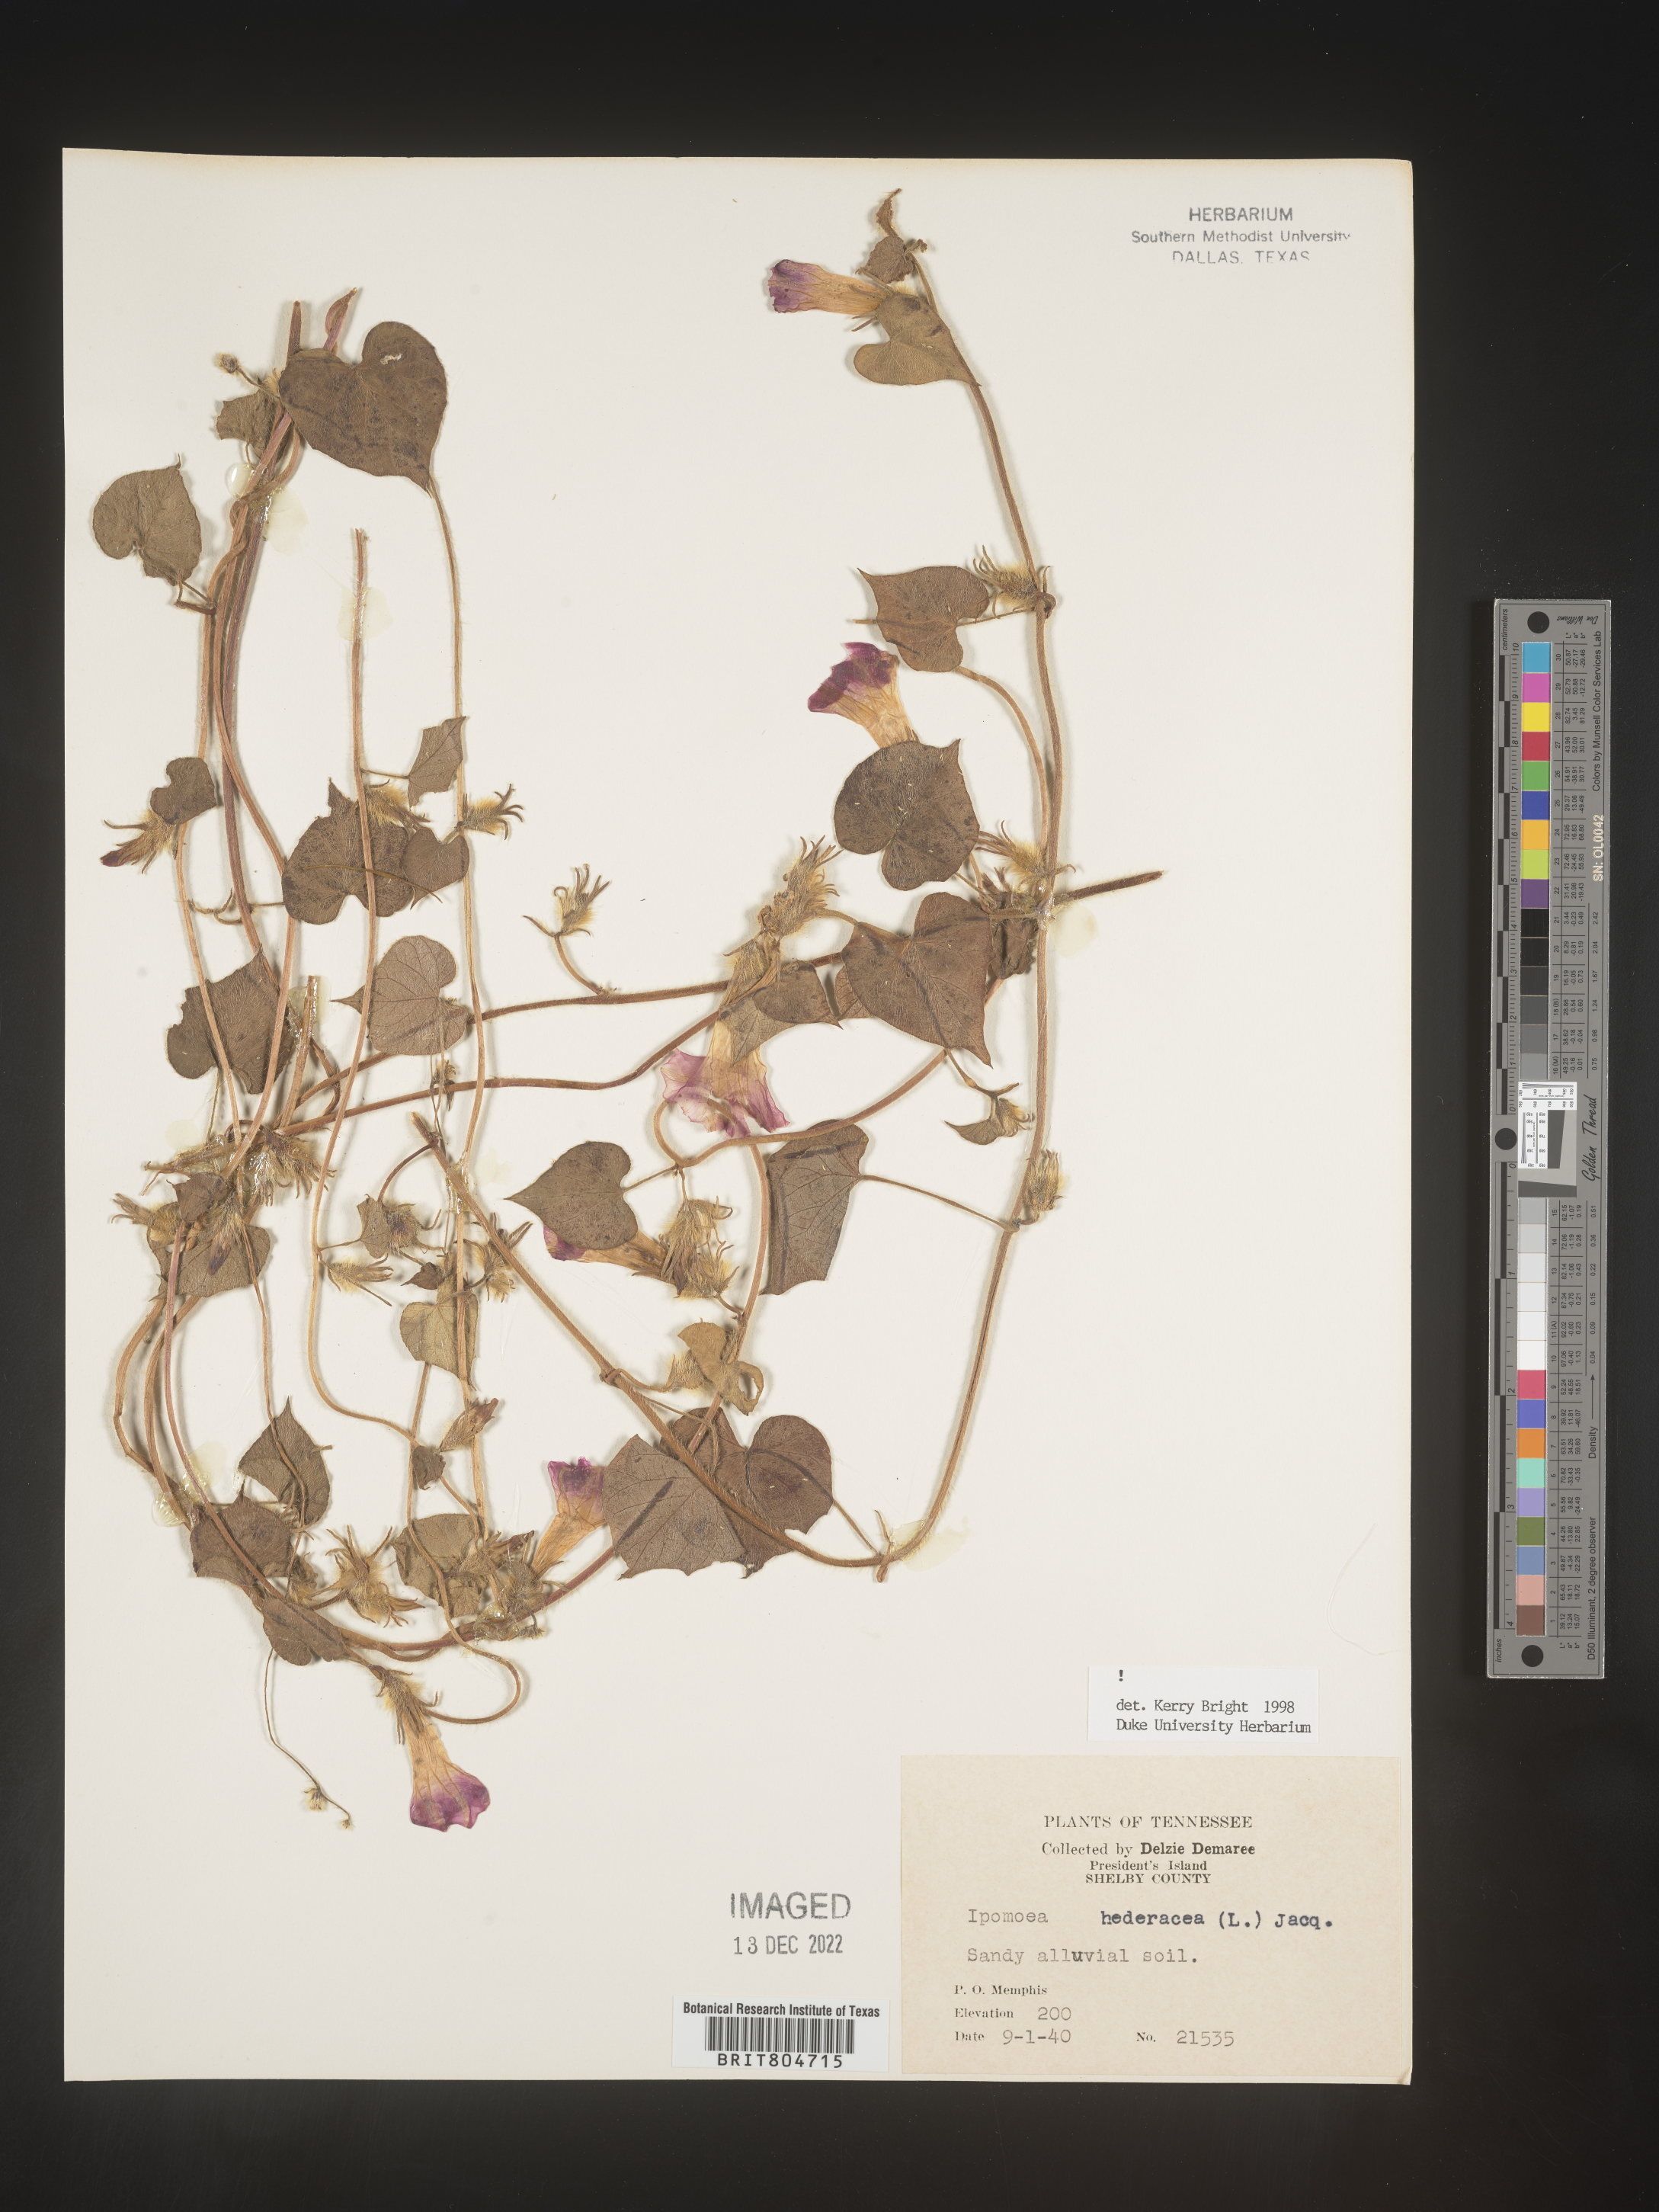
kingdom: Plantae
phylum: Tracheophyta
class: Magnoliopsida
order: Solanales
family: Convolvulaceae
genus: Ipomoea
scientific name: Ipomoea hederacea
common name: Ivy-leaved morning-glory
